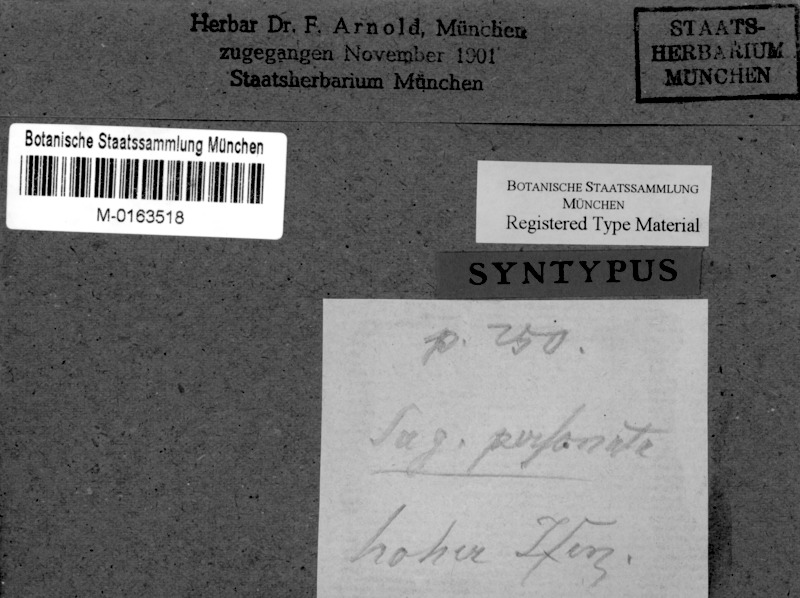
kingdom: Fungi
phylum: Ascomycota
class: Lecanoromycetes
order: Ostropales
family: Porinaceae
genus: Porina
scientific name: Porina personata
